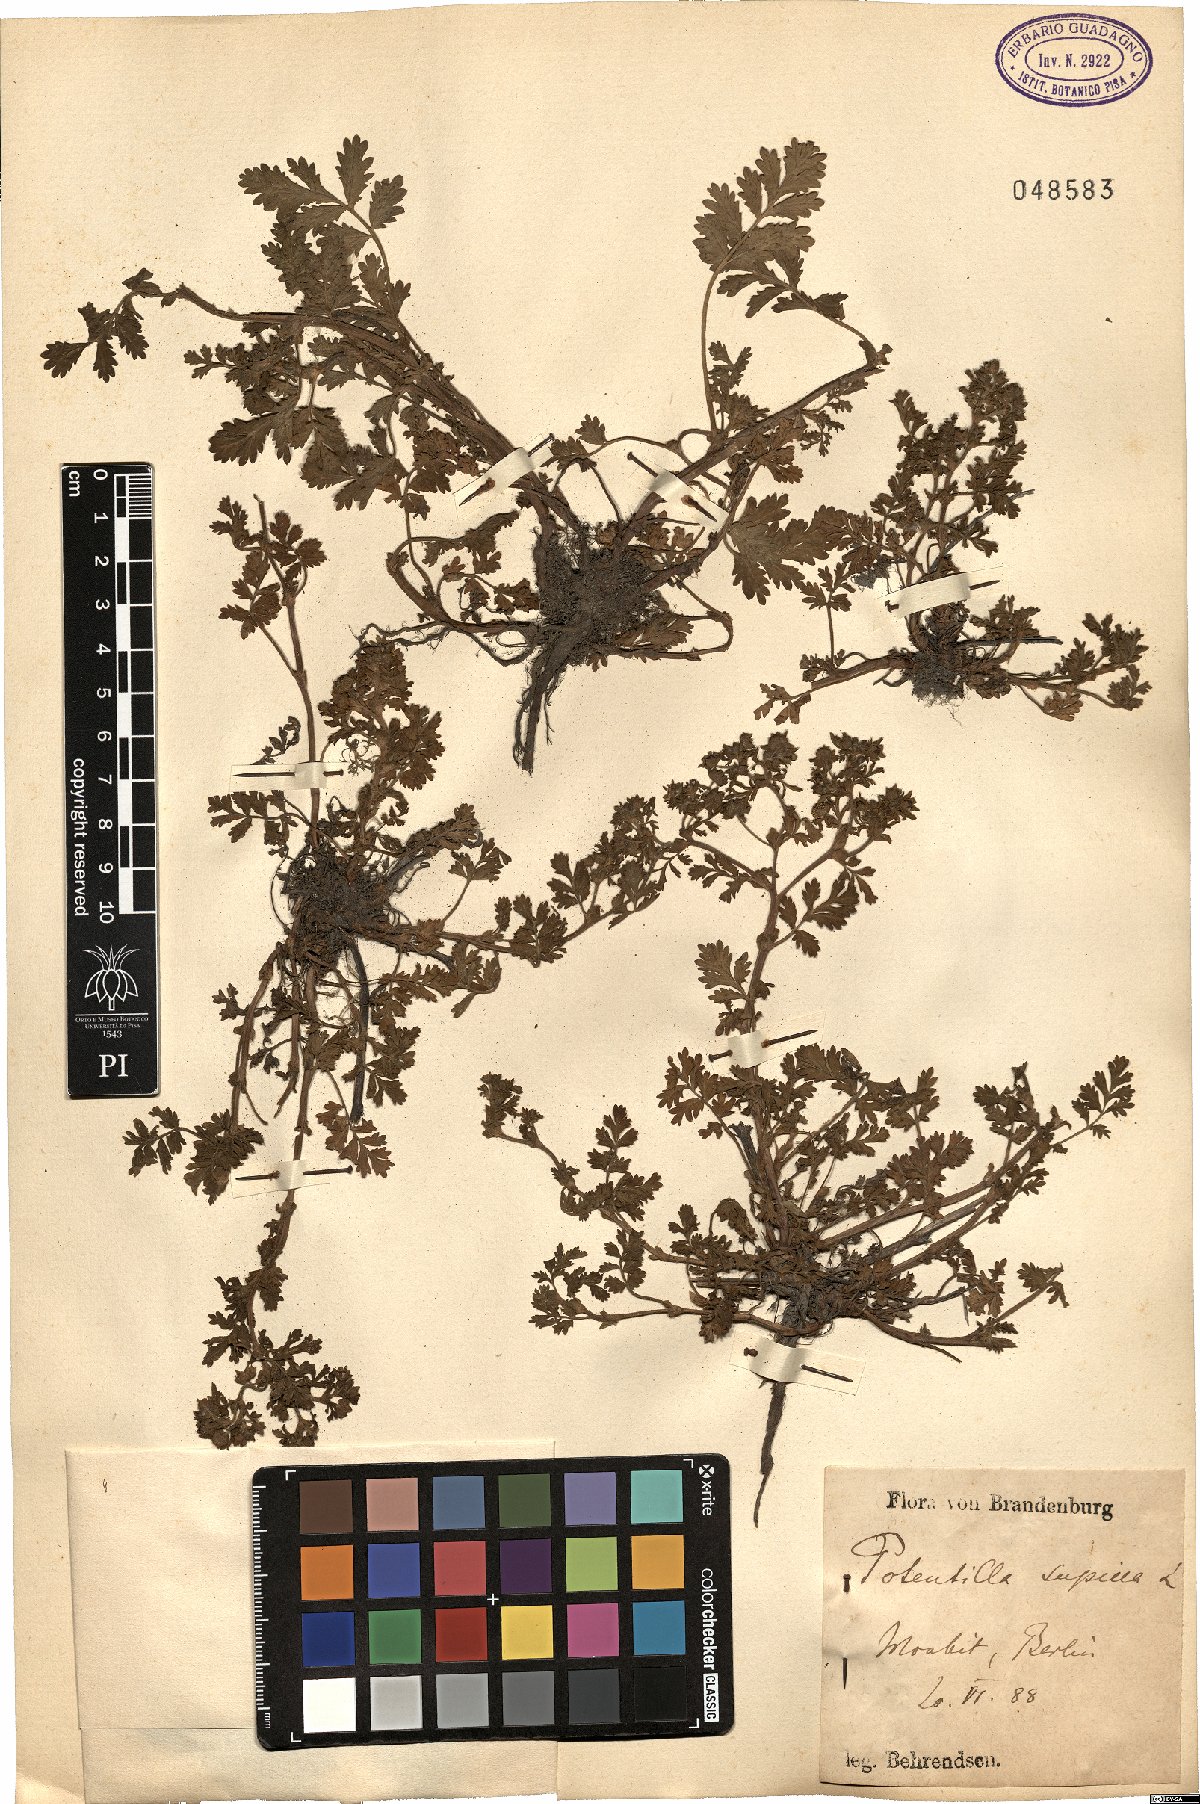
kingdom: Plantae
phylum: Tracheophyta
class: Magnoliopsida
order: Rosales
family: Rosaceae
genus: Potentilla
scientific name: Potentilla supina
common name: Prostrate cinquefoil
